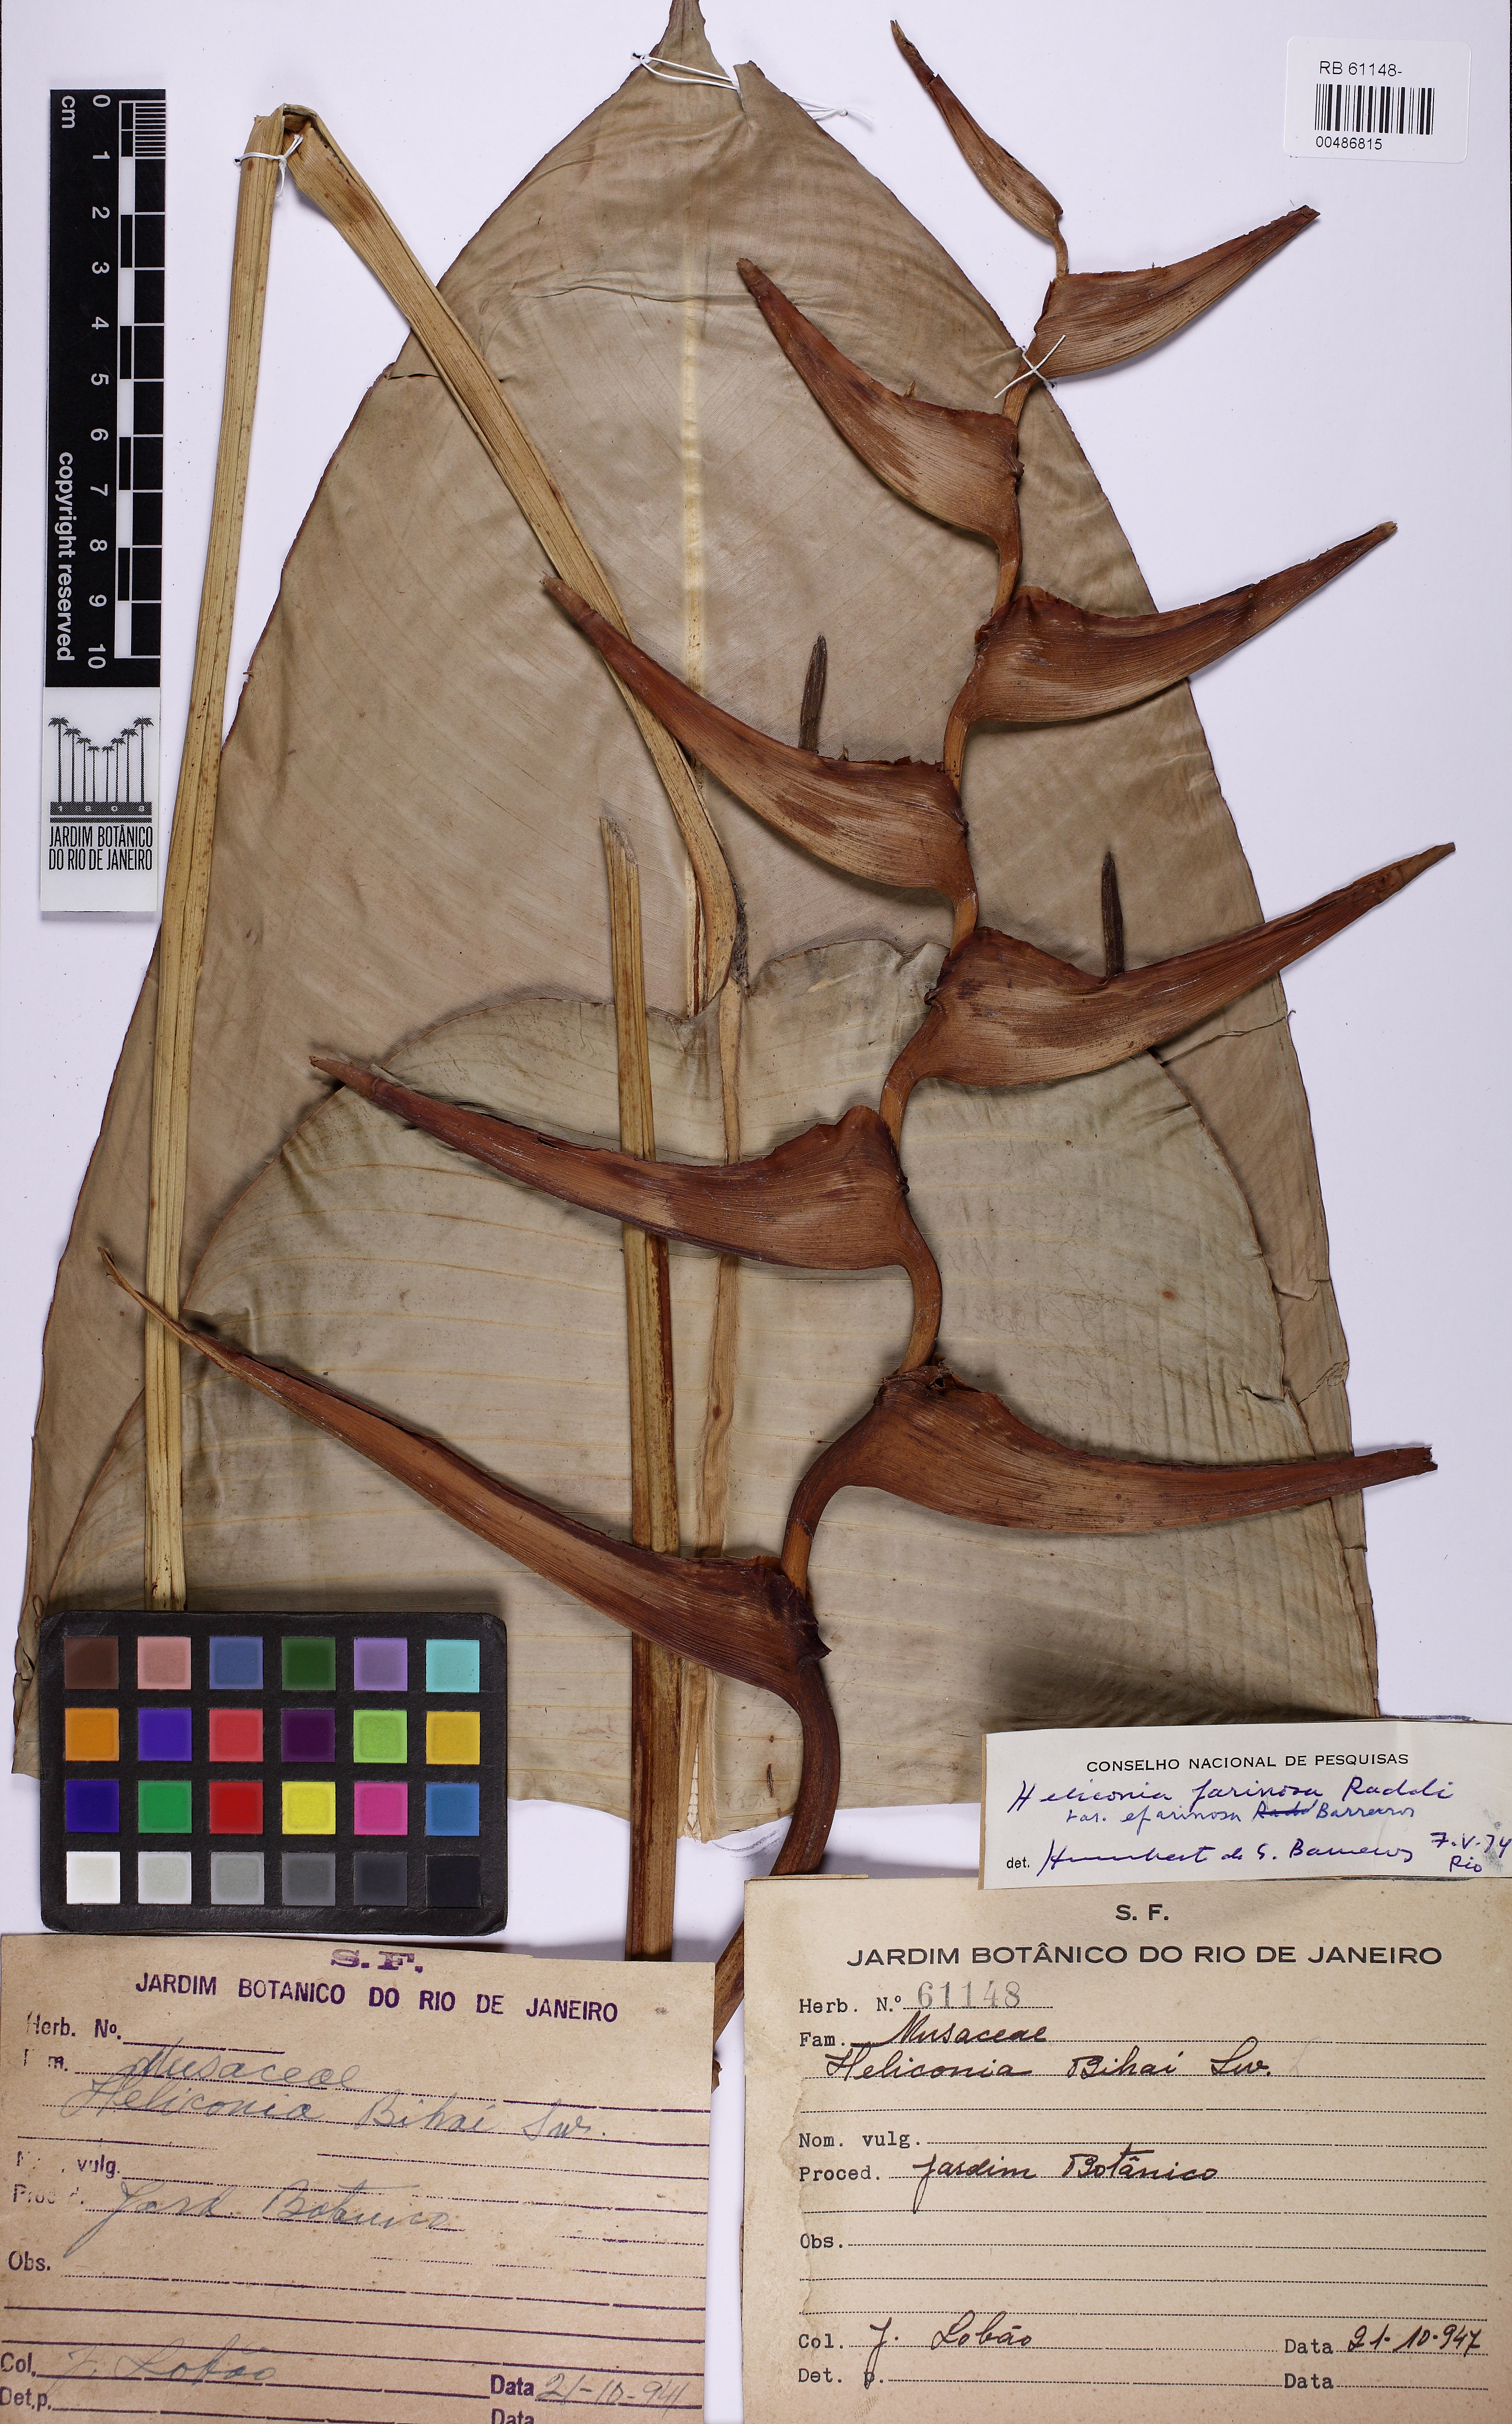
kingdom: Plantae
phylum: Tracheophyta
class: Liliopsida
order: Zingiberales
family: Heliconiaceae
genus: Heliconia
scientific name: Heliconia farinosa
